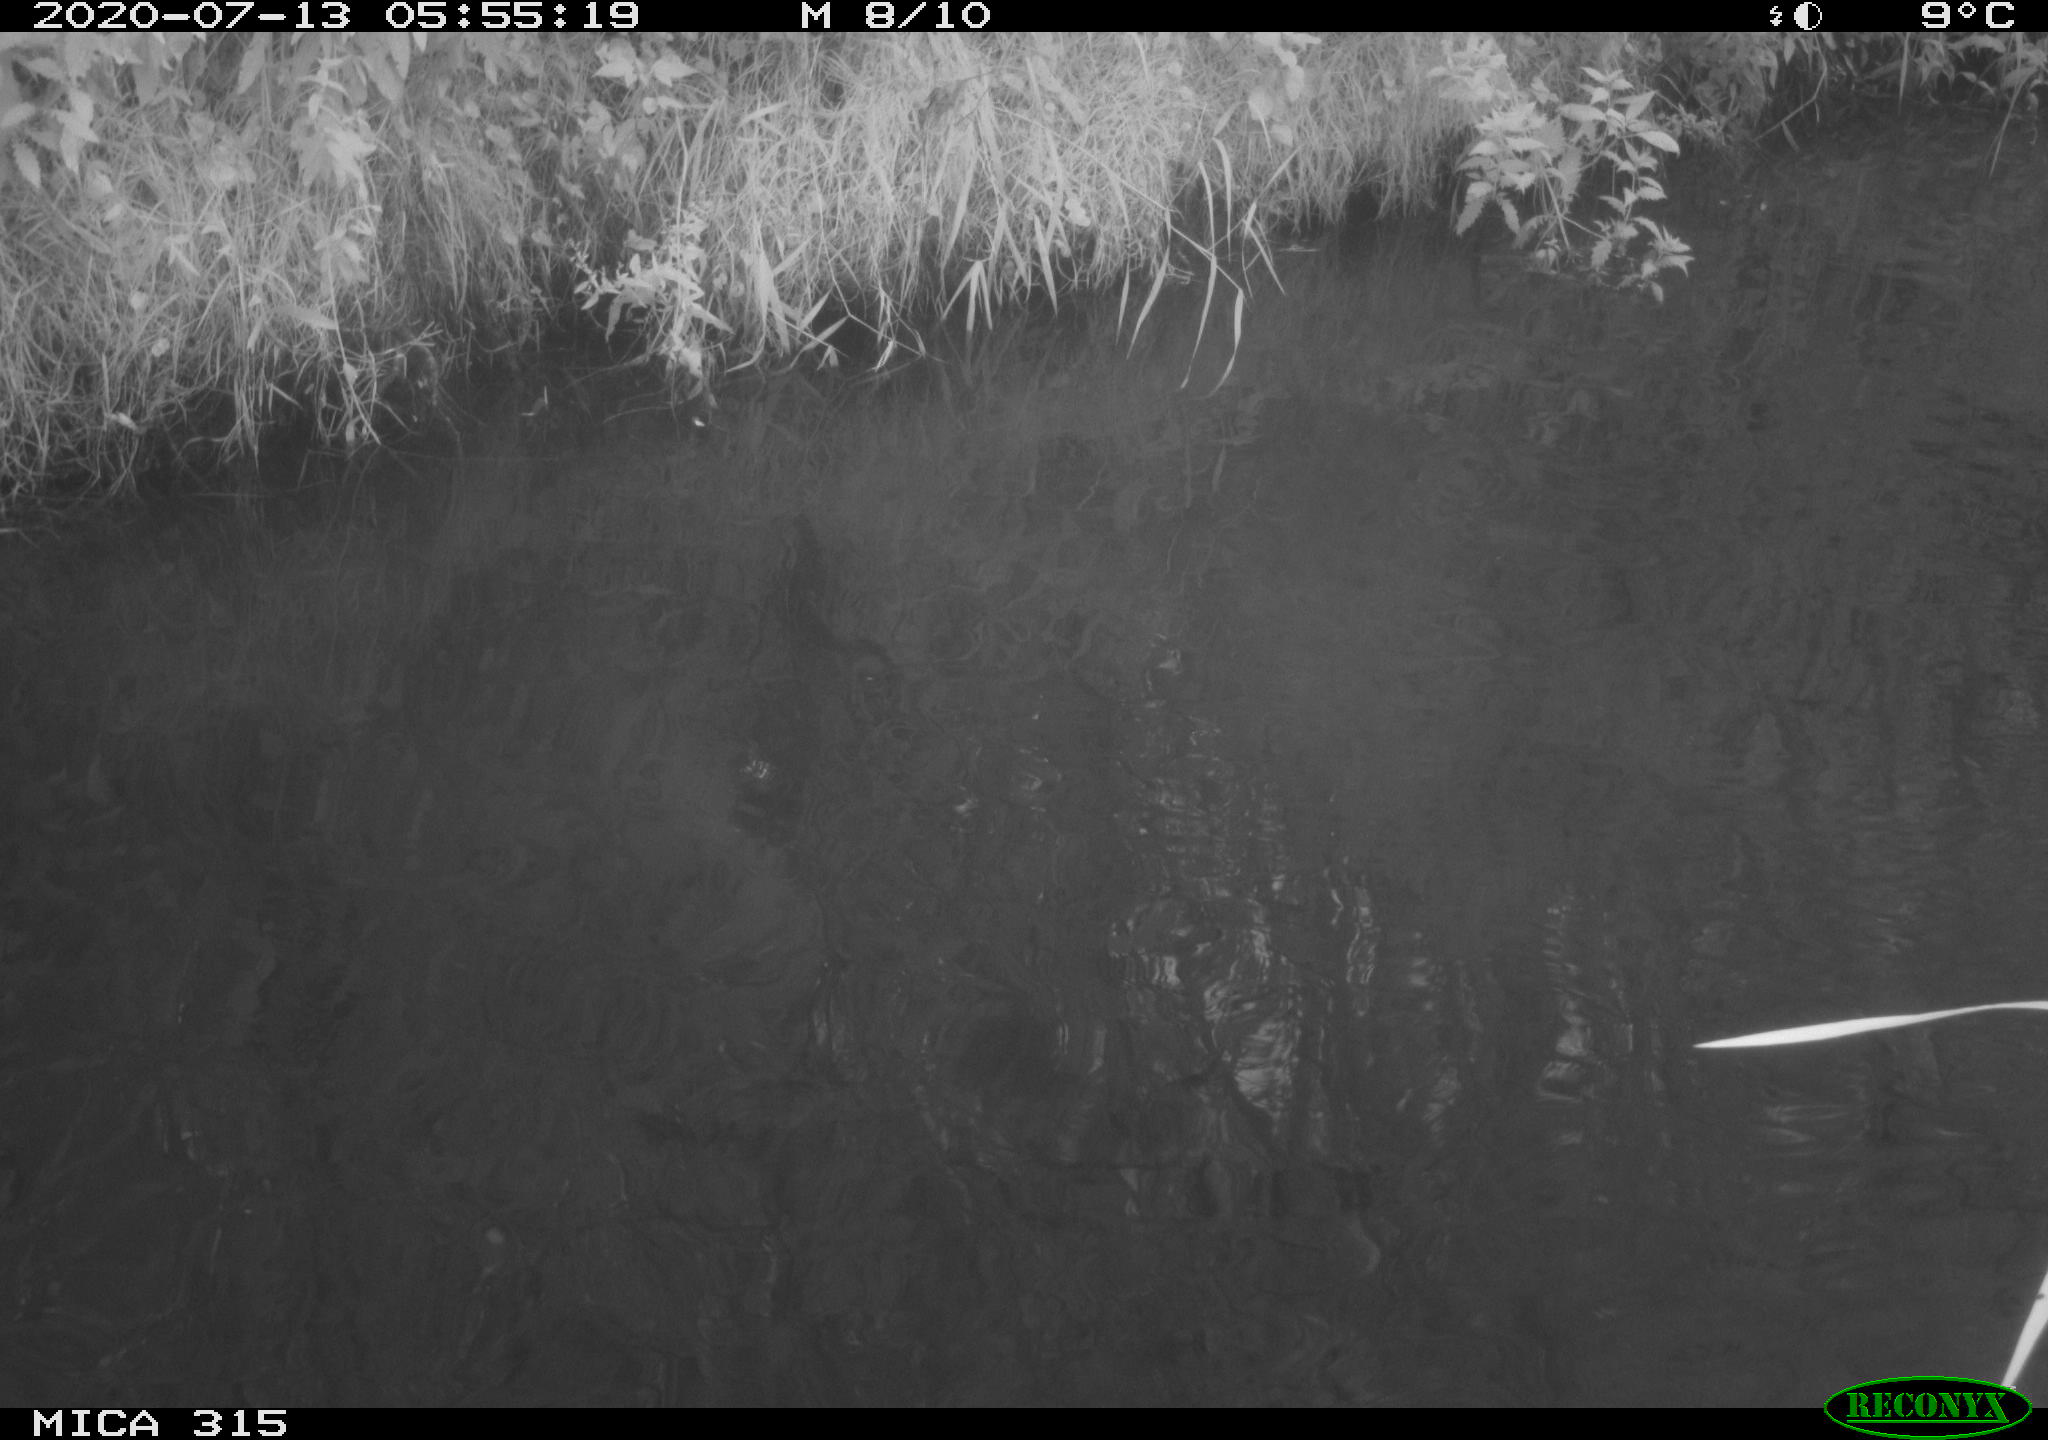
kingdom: Animalia
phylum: Chordata
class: Aves
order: Anseriformes
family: Anatidae
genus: Anas
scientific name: Anas platyrhynchos
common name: Mallard
